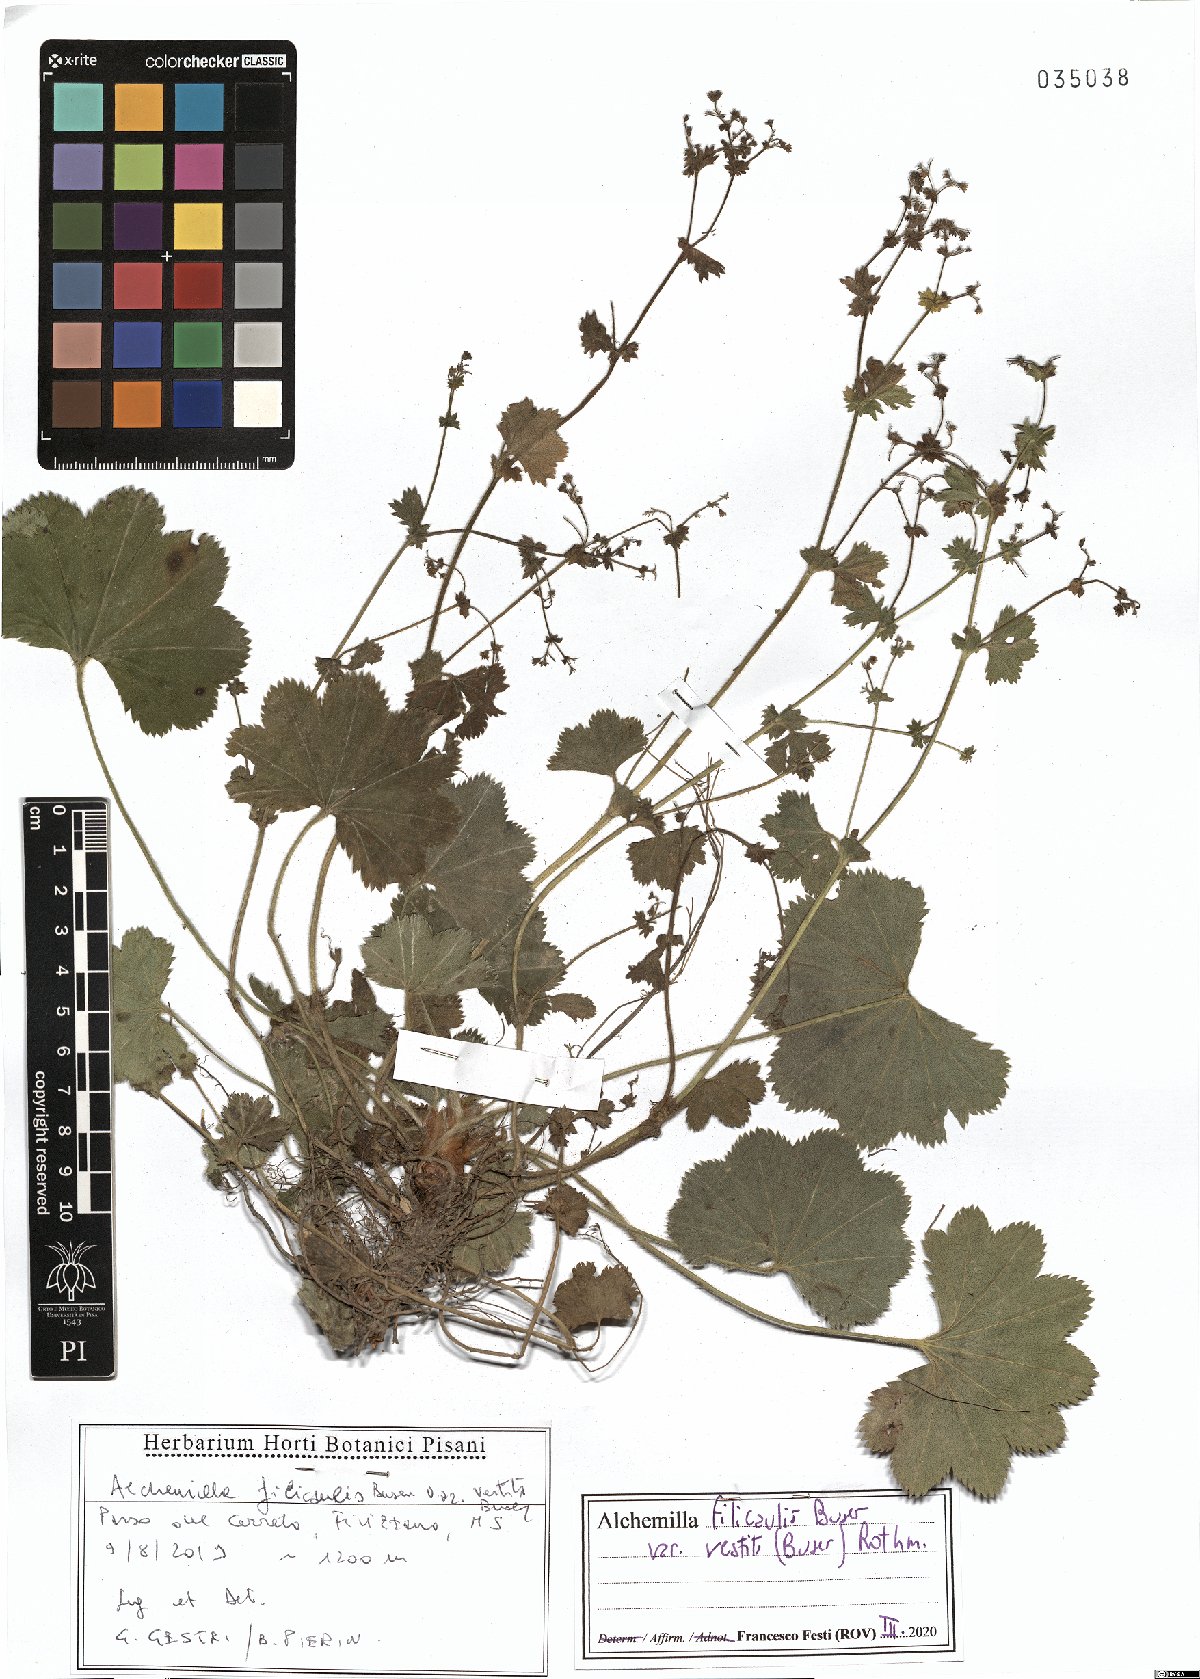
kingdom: Plantae
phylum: Tracheophyta
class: Magnoliopsida
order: Rosales
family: Rosaceae
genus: Alchemilla
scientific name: Alchemilla filicaulis
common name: Hairy lady's-mantle
